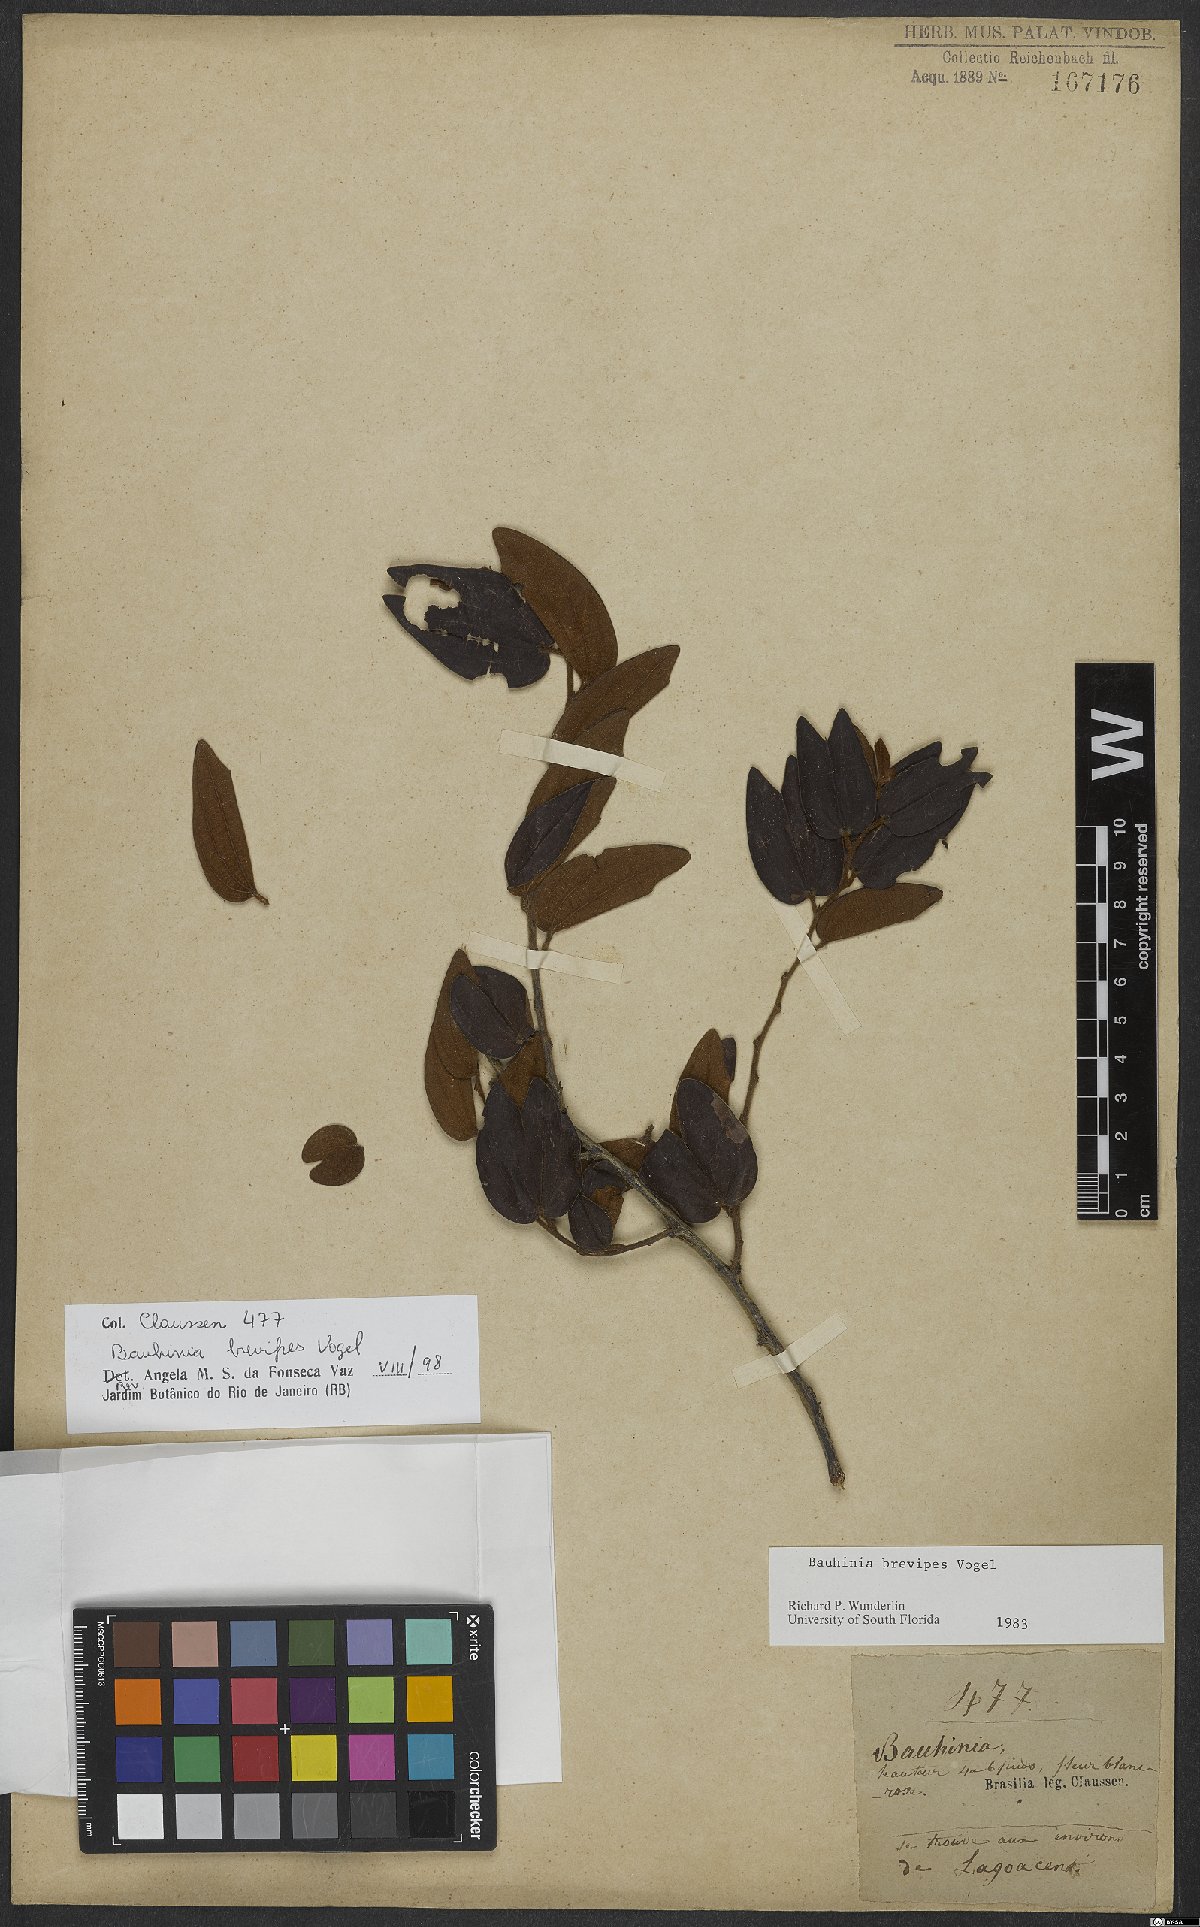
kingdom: Plantae
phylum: Tracheophyta
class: Magnoliopsida
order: Fabales
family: Fabaceae
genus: Bauhinia
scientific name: Bauhinia brevipes
